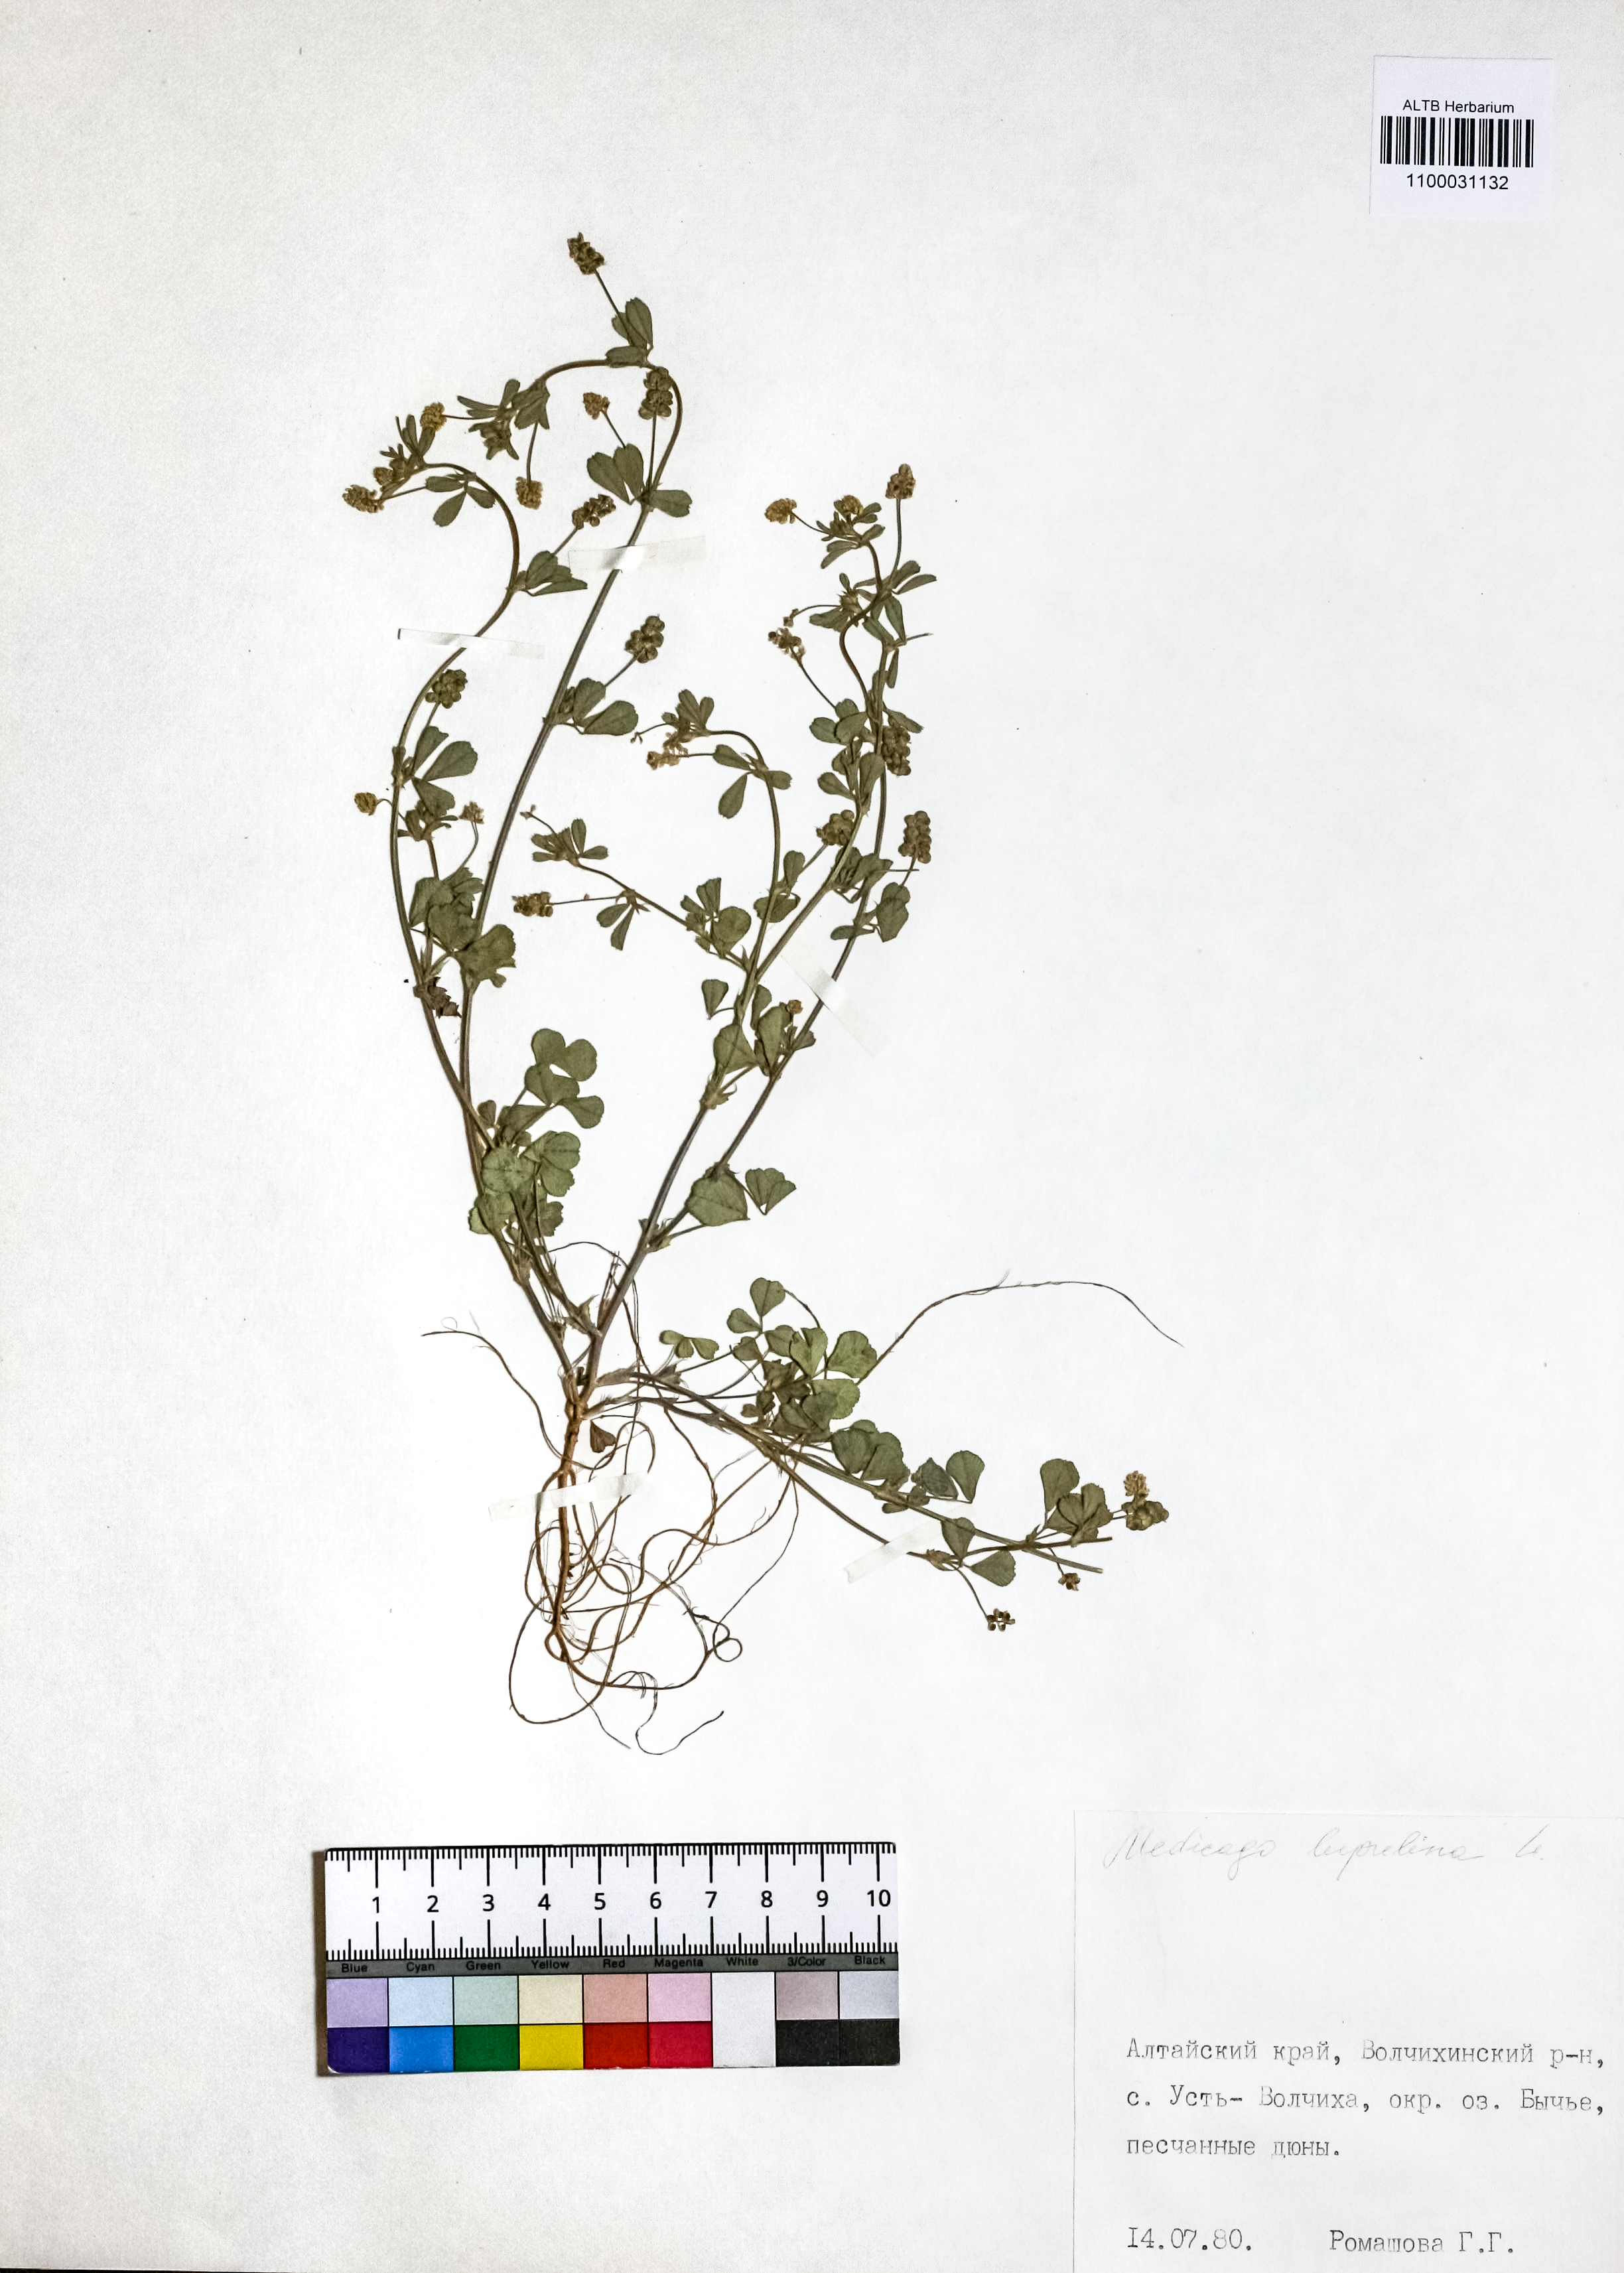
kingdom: Plantae
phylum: Tracheophyta
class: Magnoliopsida
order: Fabales
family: Fabaceae
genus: Medicago
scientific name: Medicago lupulina
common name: Black medick
